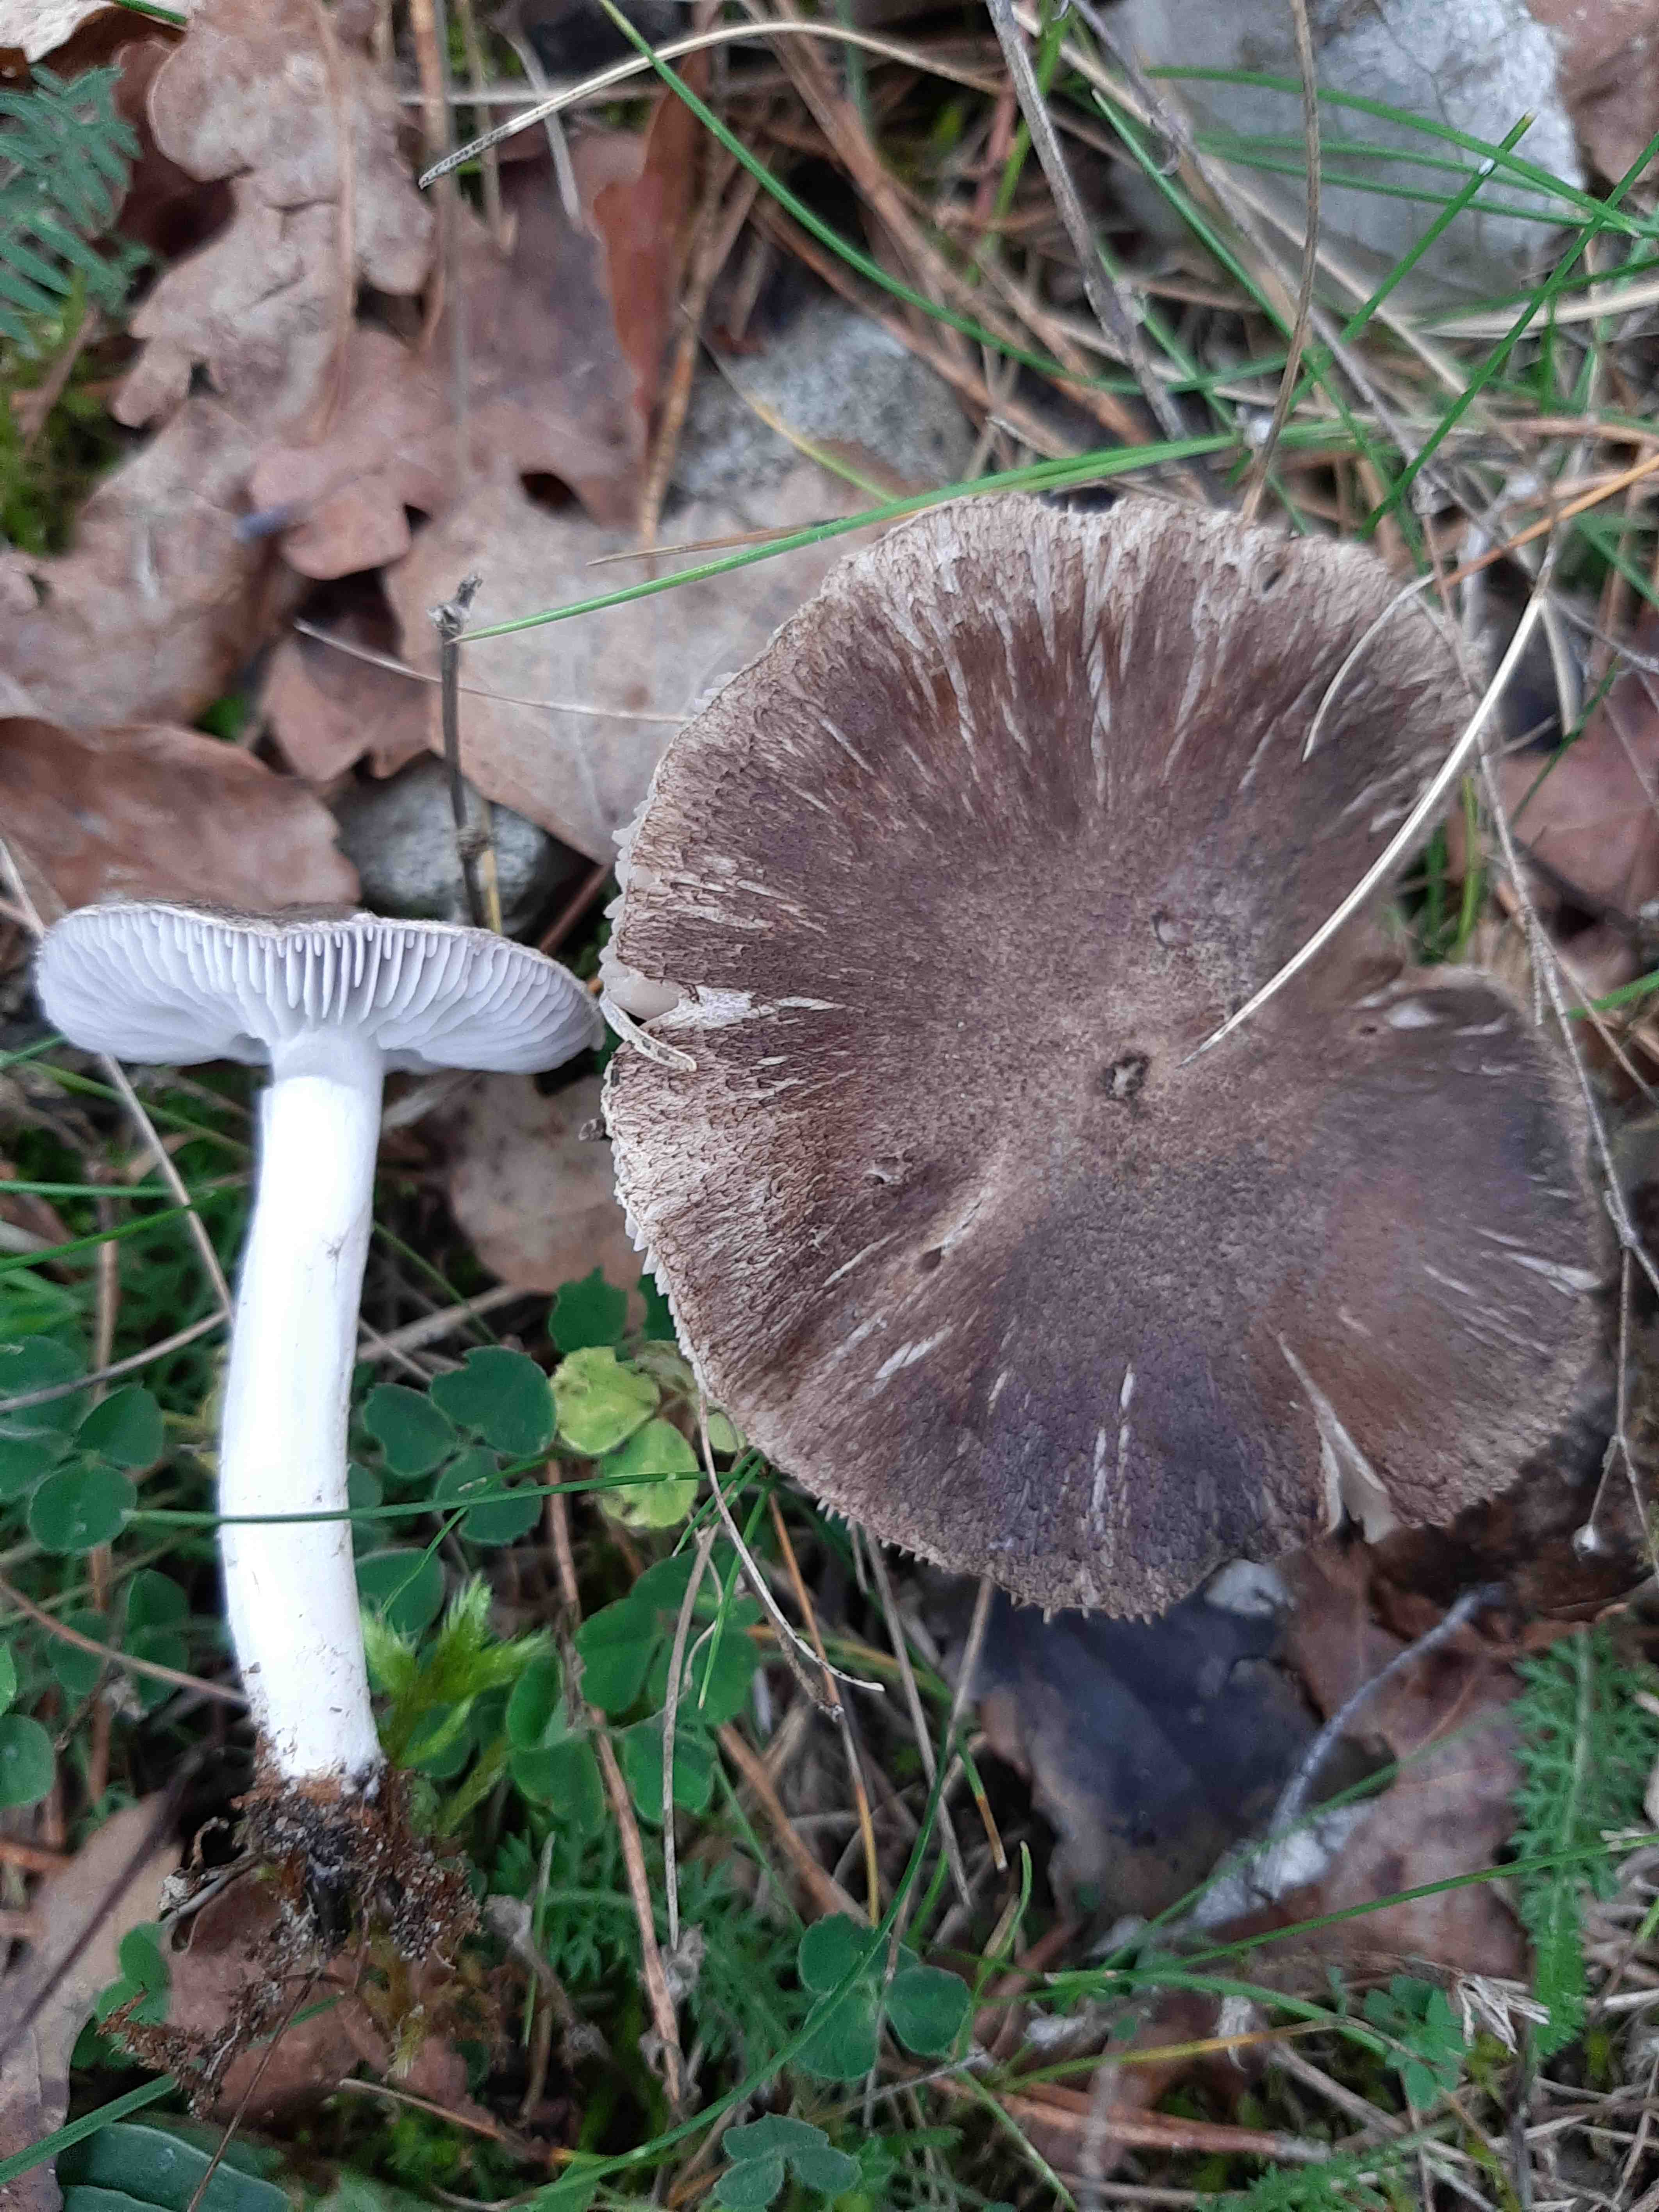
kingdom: Fungi
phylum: Basidiomycota
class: Agaricomycetes
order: Agaricales
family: Tricholomataceae
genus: Tricholoma
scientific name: Tricholoma terreum
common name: jordfarvet ridderhat
